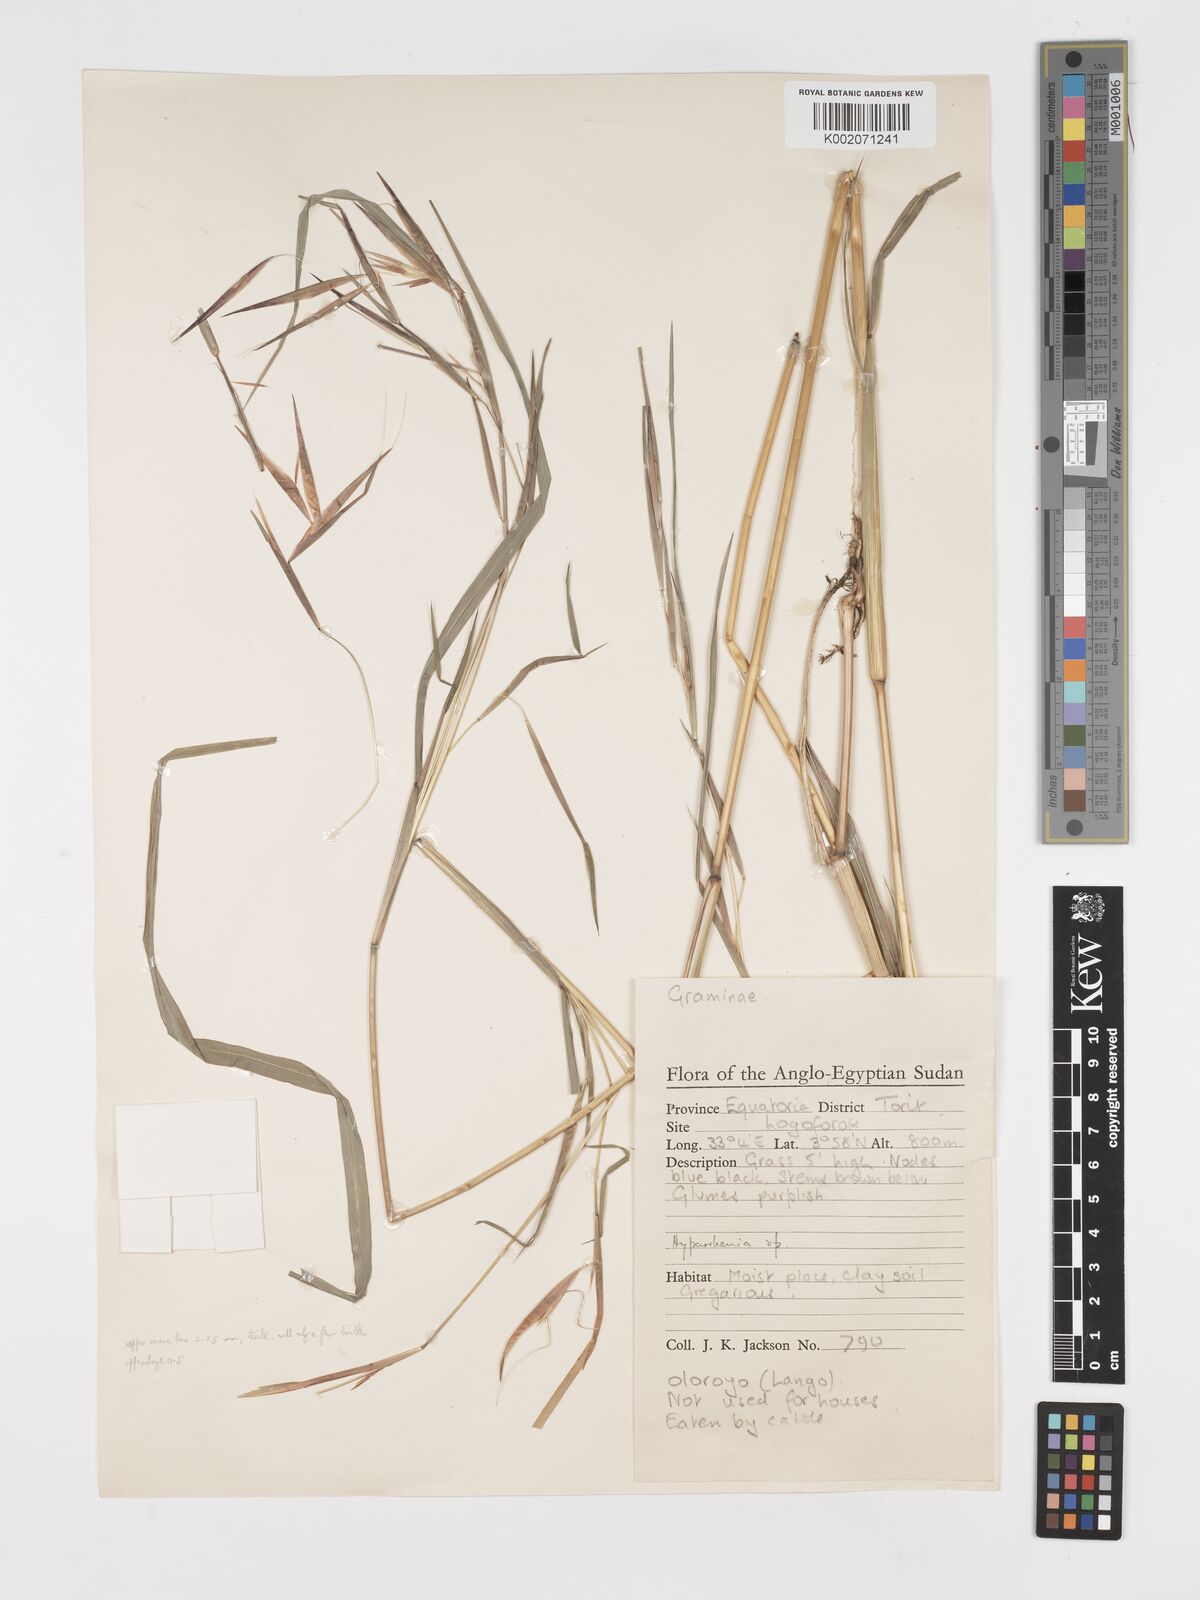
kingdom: Plantae
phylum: Tracheophyta
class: Liliopsida
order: Poales
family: Poaceae
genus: Hyparrhenia
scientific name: Hyparrhenia madaropoda
